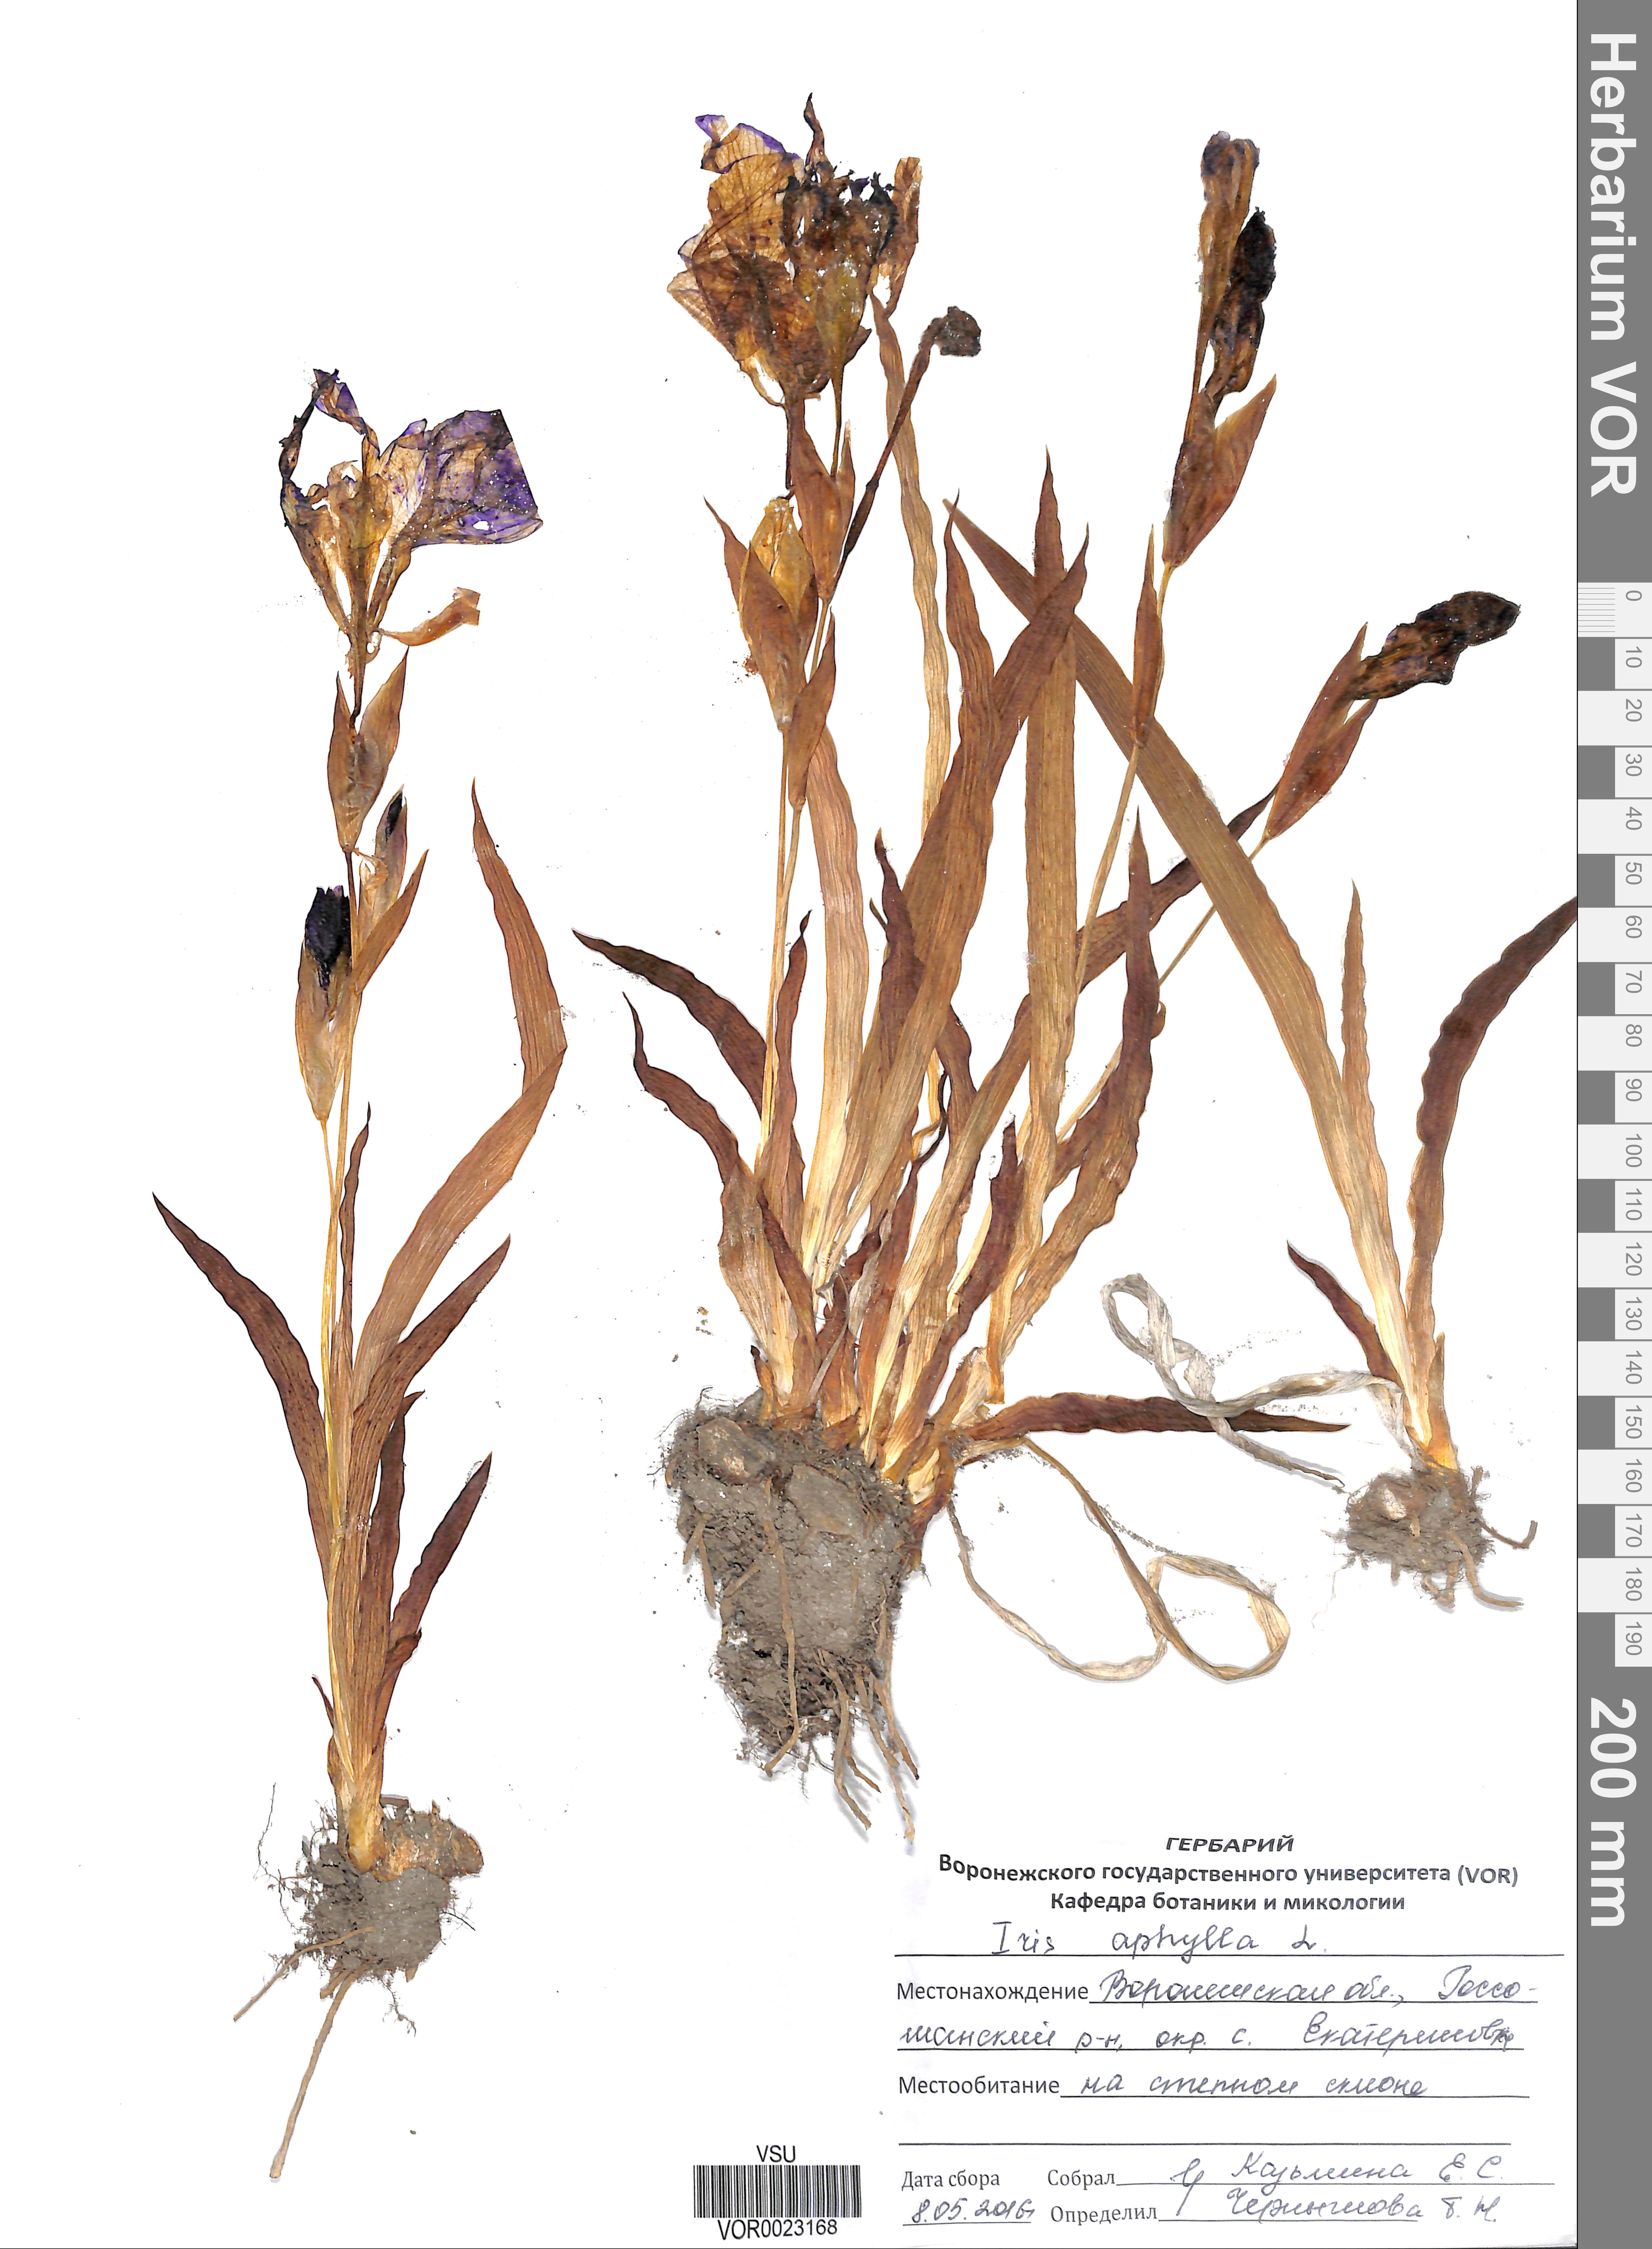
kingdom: Plantae
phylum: Tracheophyta
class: Liliopsida
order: Asparagales
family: Iridaceae
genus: Iris
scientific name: Iris aphylla
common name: Stool iris
